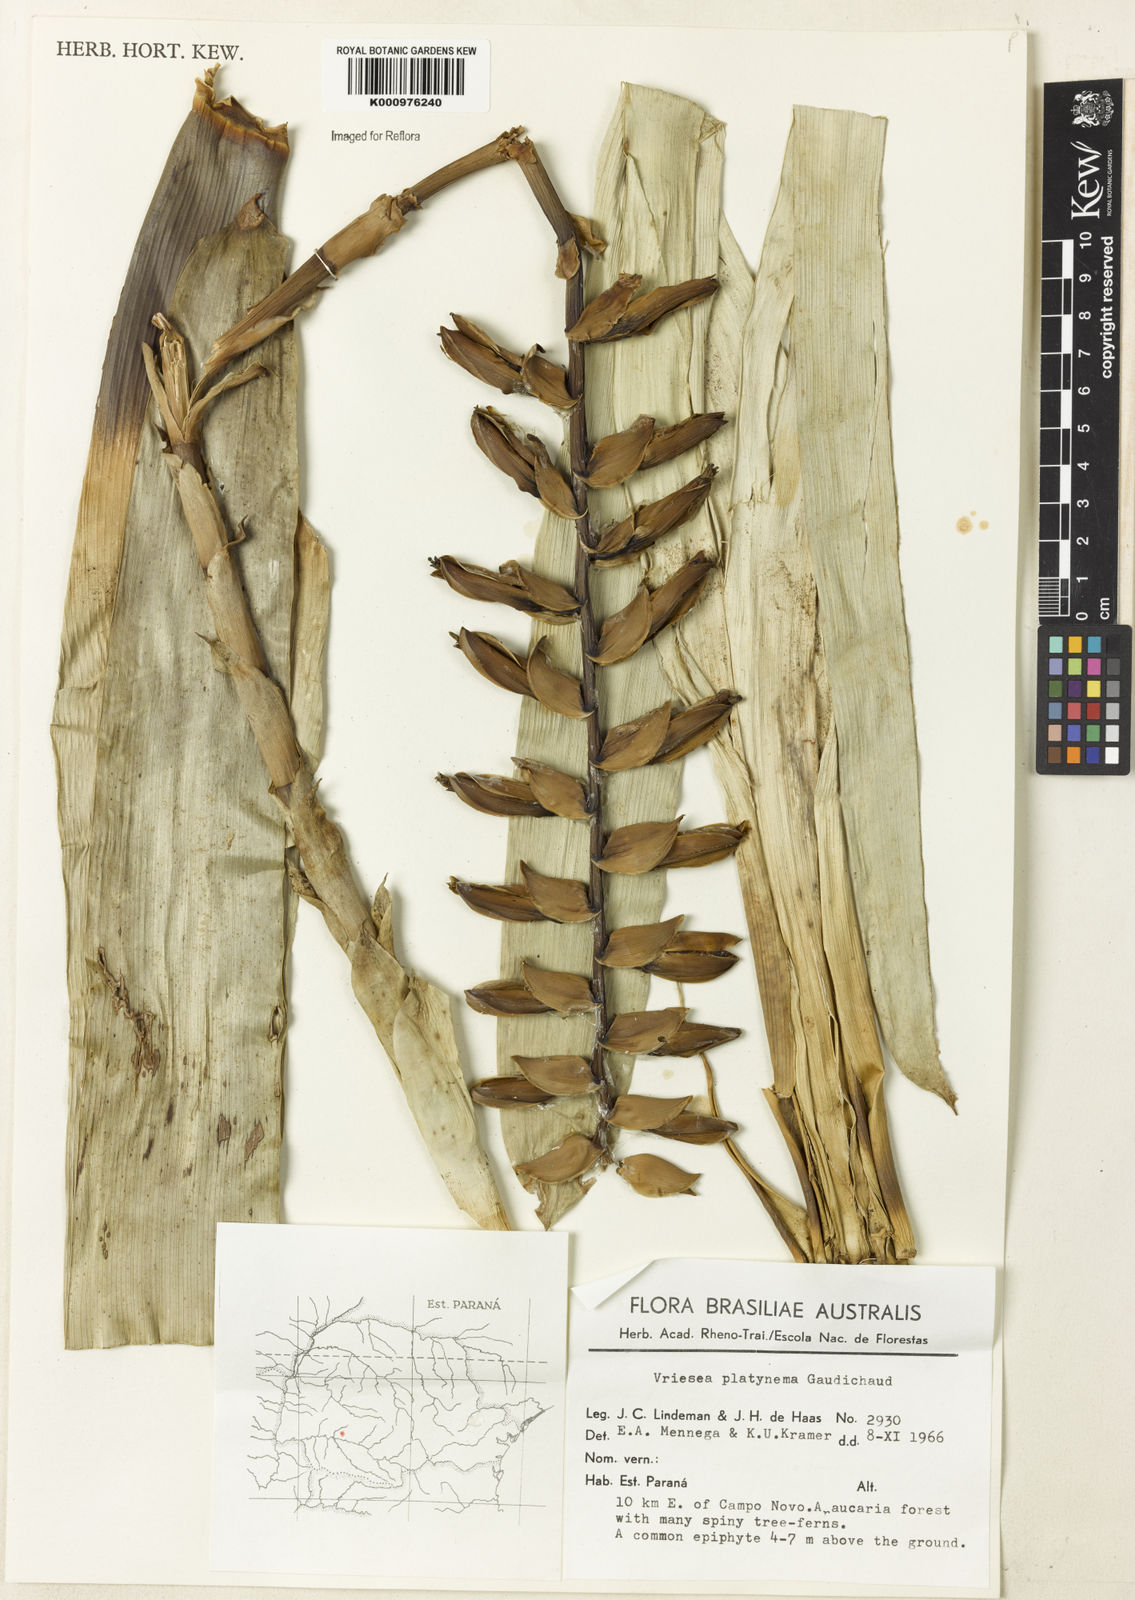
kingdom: Plantae
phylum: Tracheophyta
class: Liliopsida
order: Poales
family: Bromeliaceae
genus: Vriesea
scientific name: Vriesea platynema
